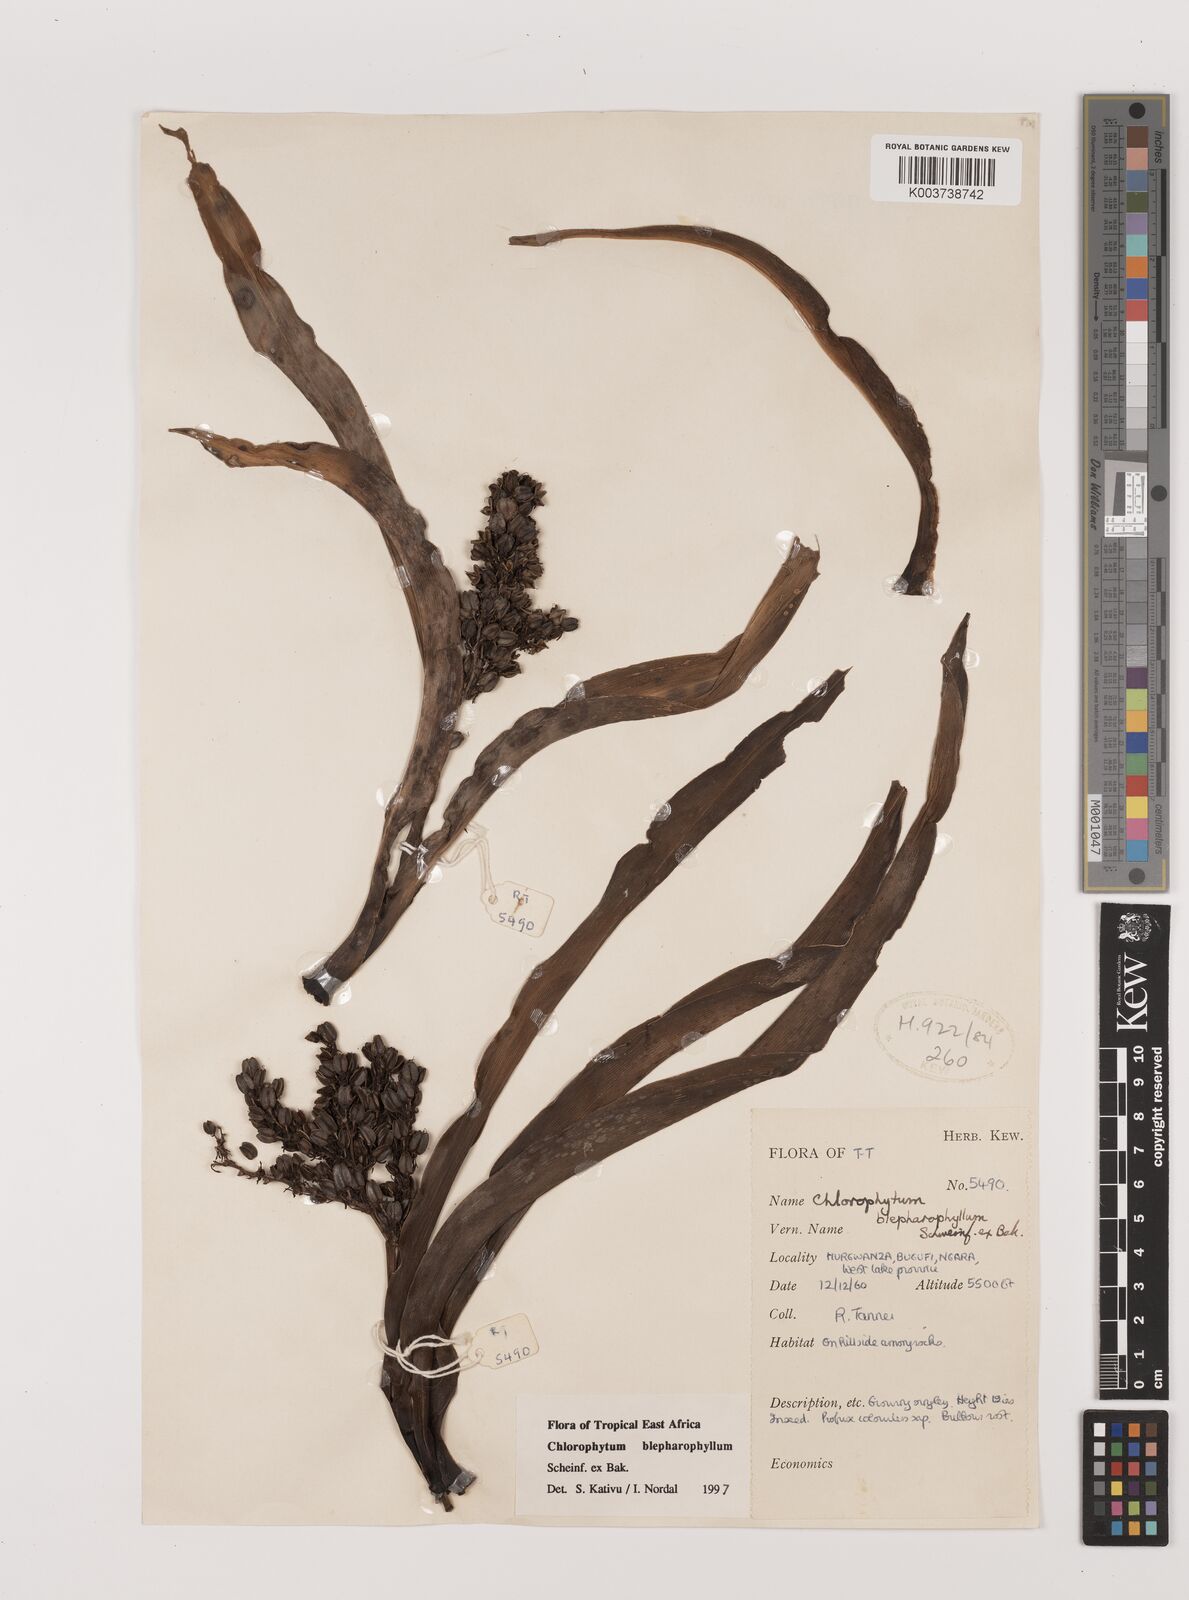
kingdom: Plantae
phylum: Tracheophyta
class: Liliopsida
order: Asparagales
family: Asparagaceae
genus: Chlorophytum
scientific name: Chlorophytum blepharophyllum
